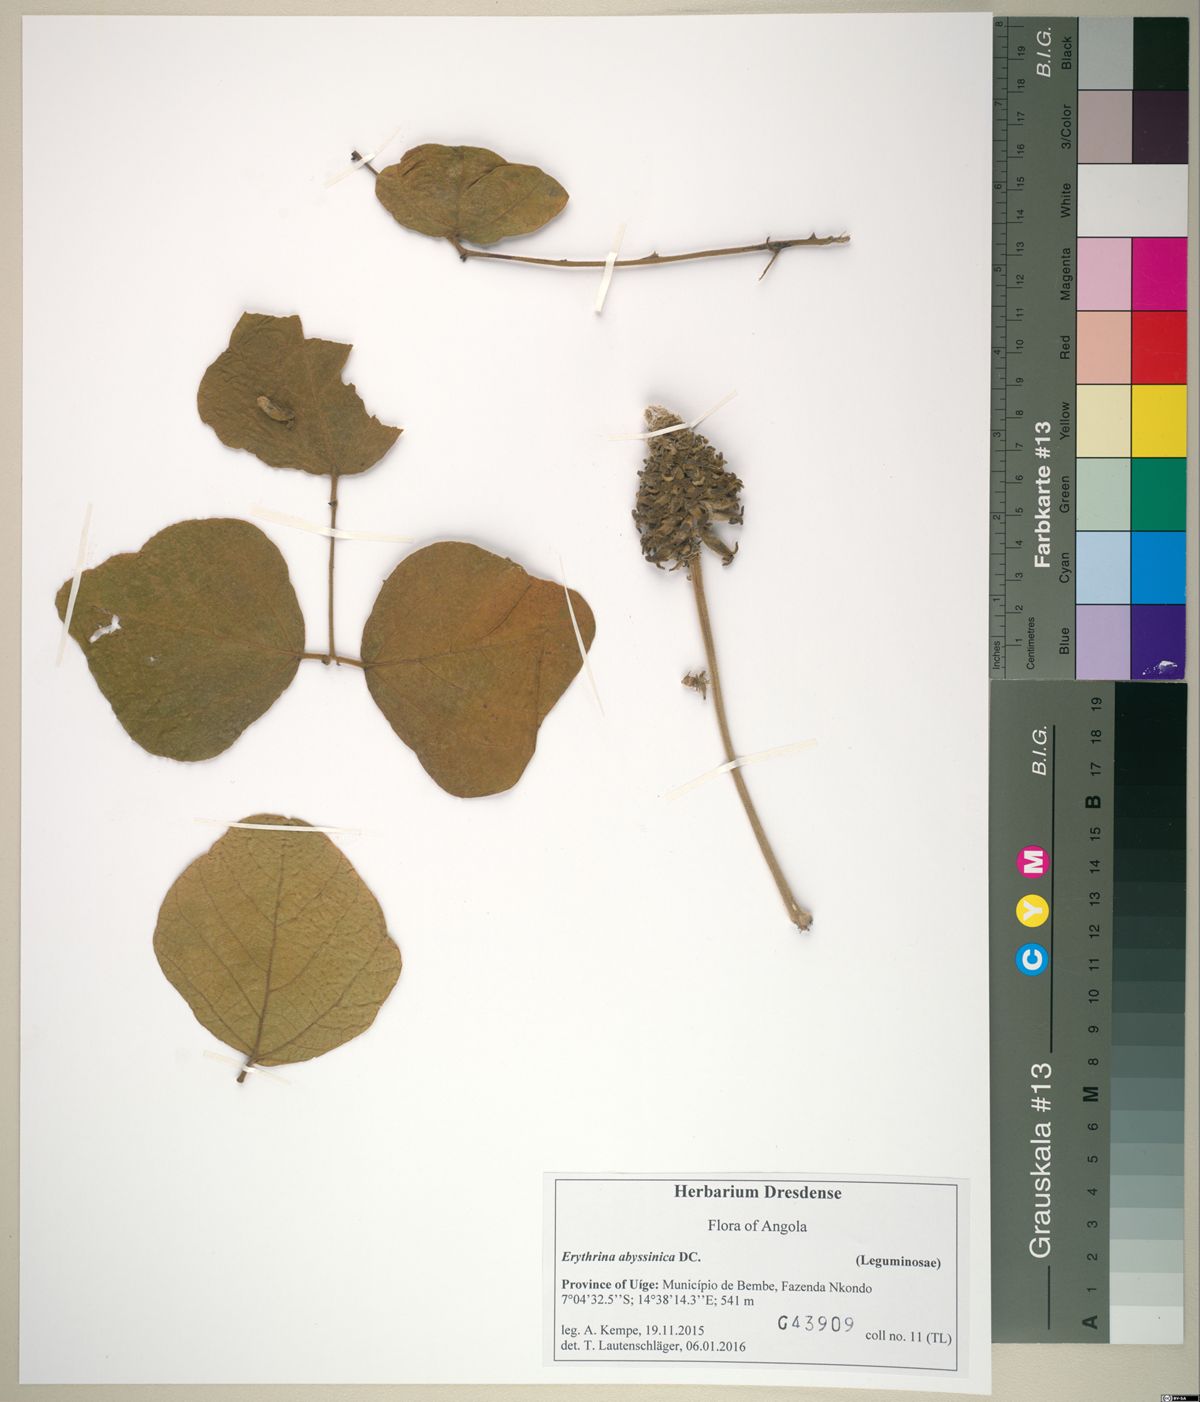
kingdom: Plantae
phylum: Tracheophyta
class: Magnoliopsida
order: Fabales
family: Fabaceae
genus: Erythrina
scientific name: Erythrina abyssinica
